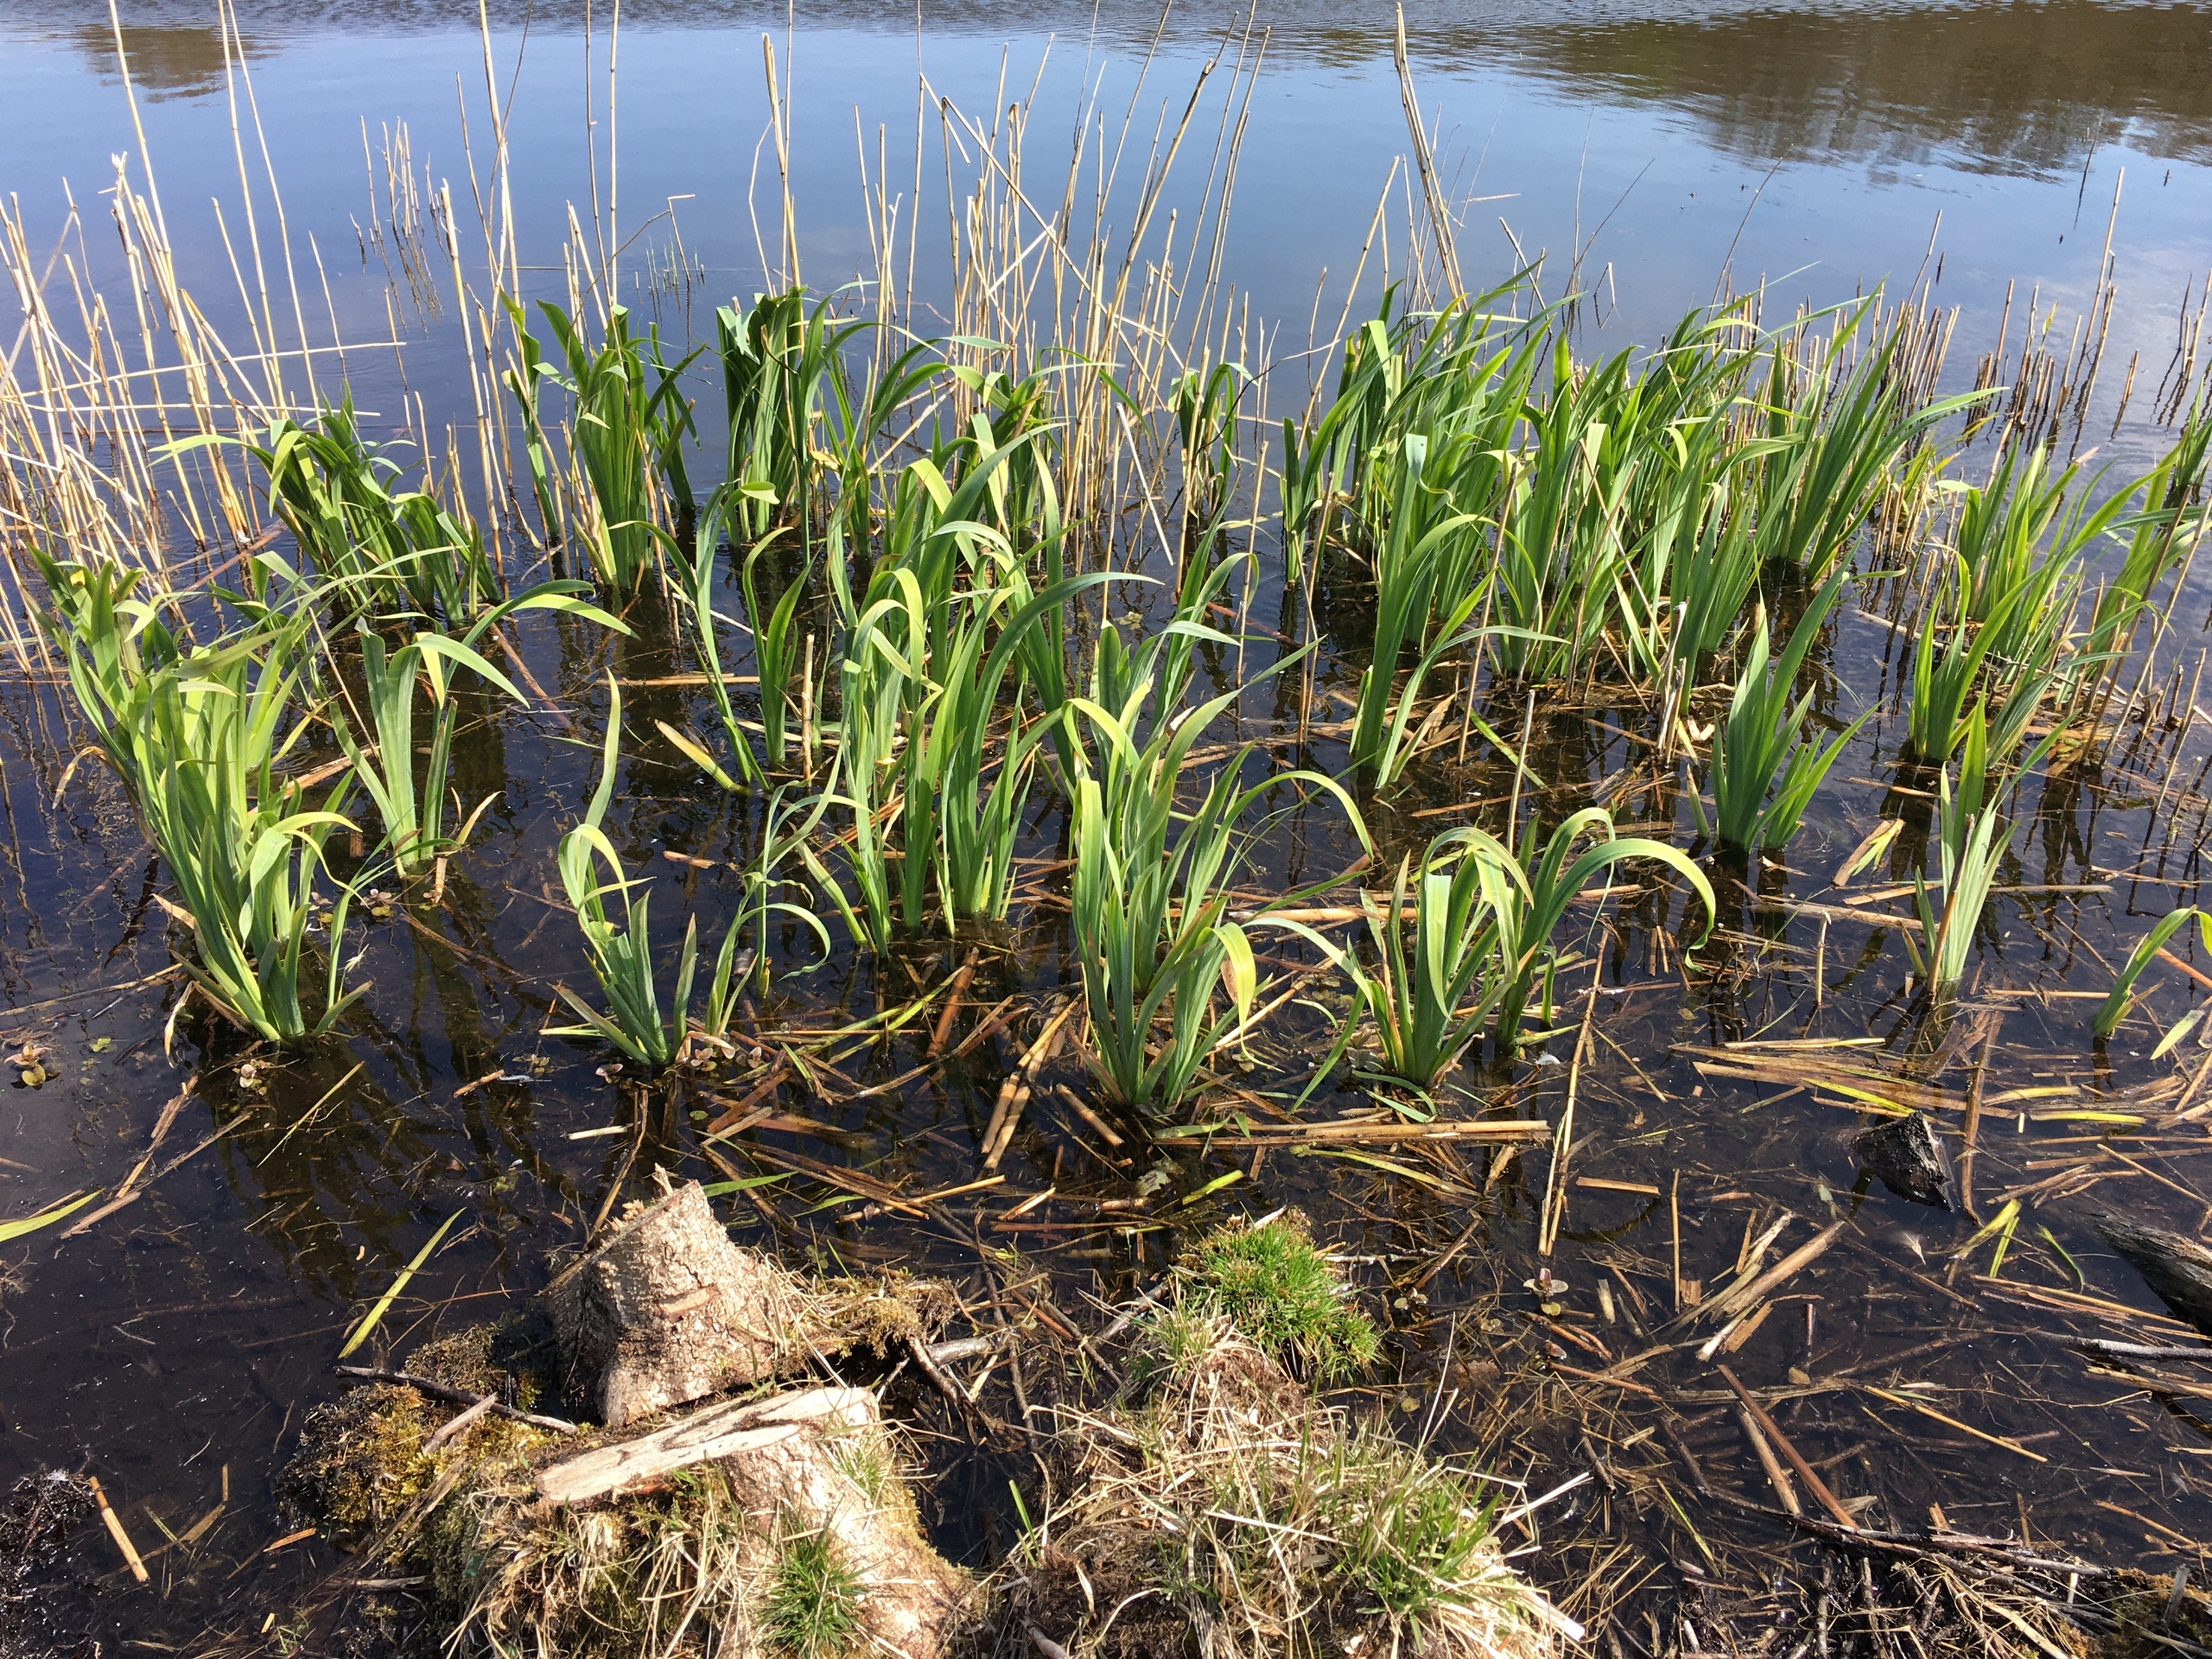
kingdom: Plantae
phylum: Tracheophyta
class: Liliopsida
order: Asparagales
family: Iridaceae
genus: Iris
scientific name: Iris pseudacorus
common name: Gul iris
